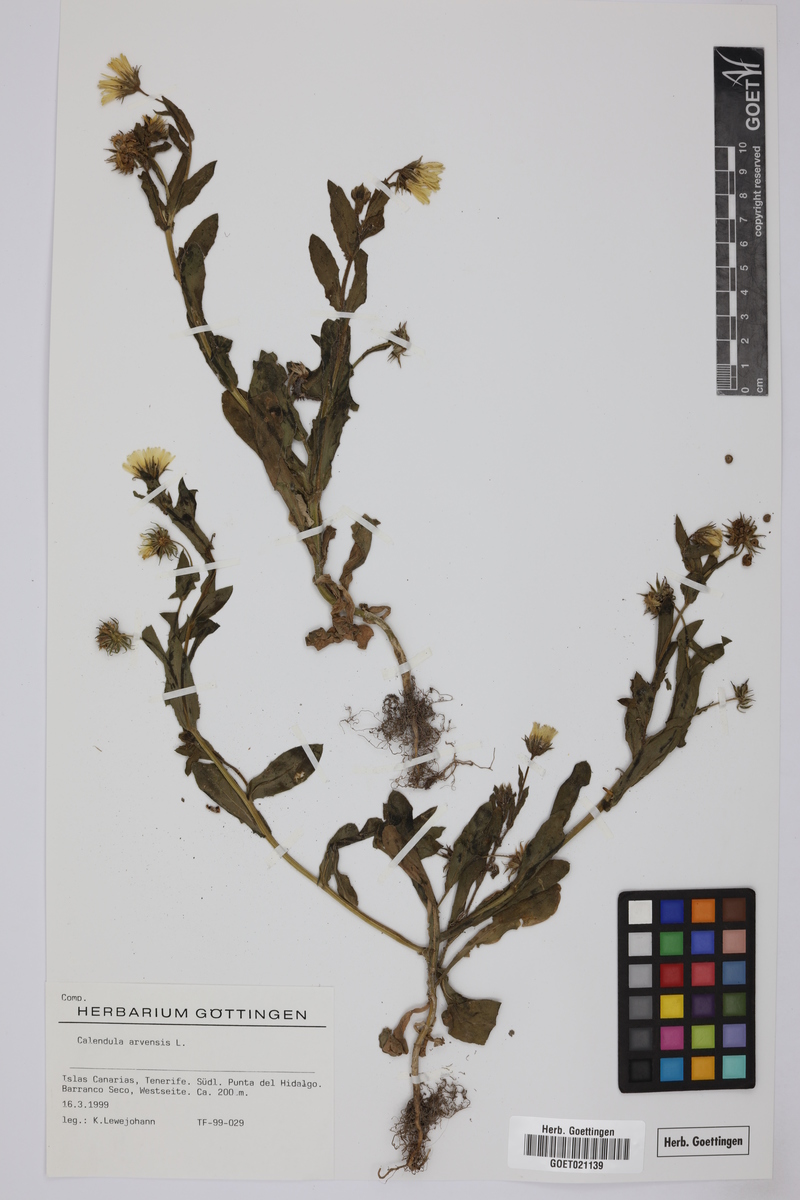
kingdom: Plantae
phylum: Tracheophyta
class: Magnoliopsida
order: Asterales
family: Asteraceae
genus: Calendula
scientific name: Calendula arvensis
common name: Field marigold
